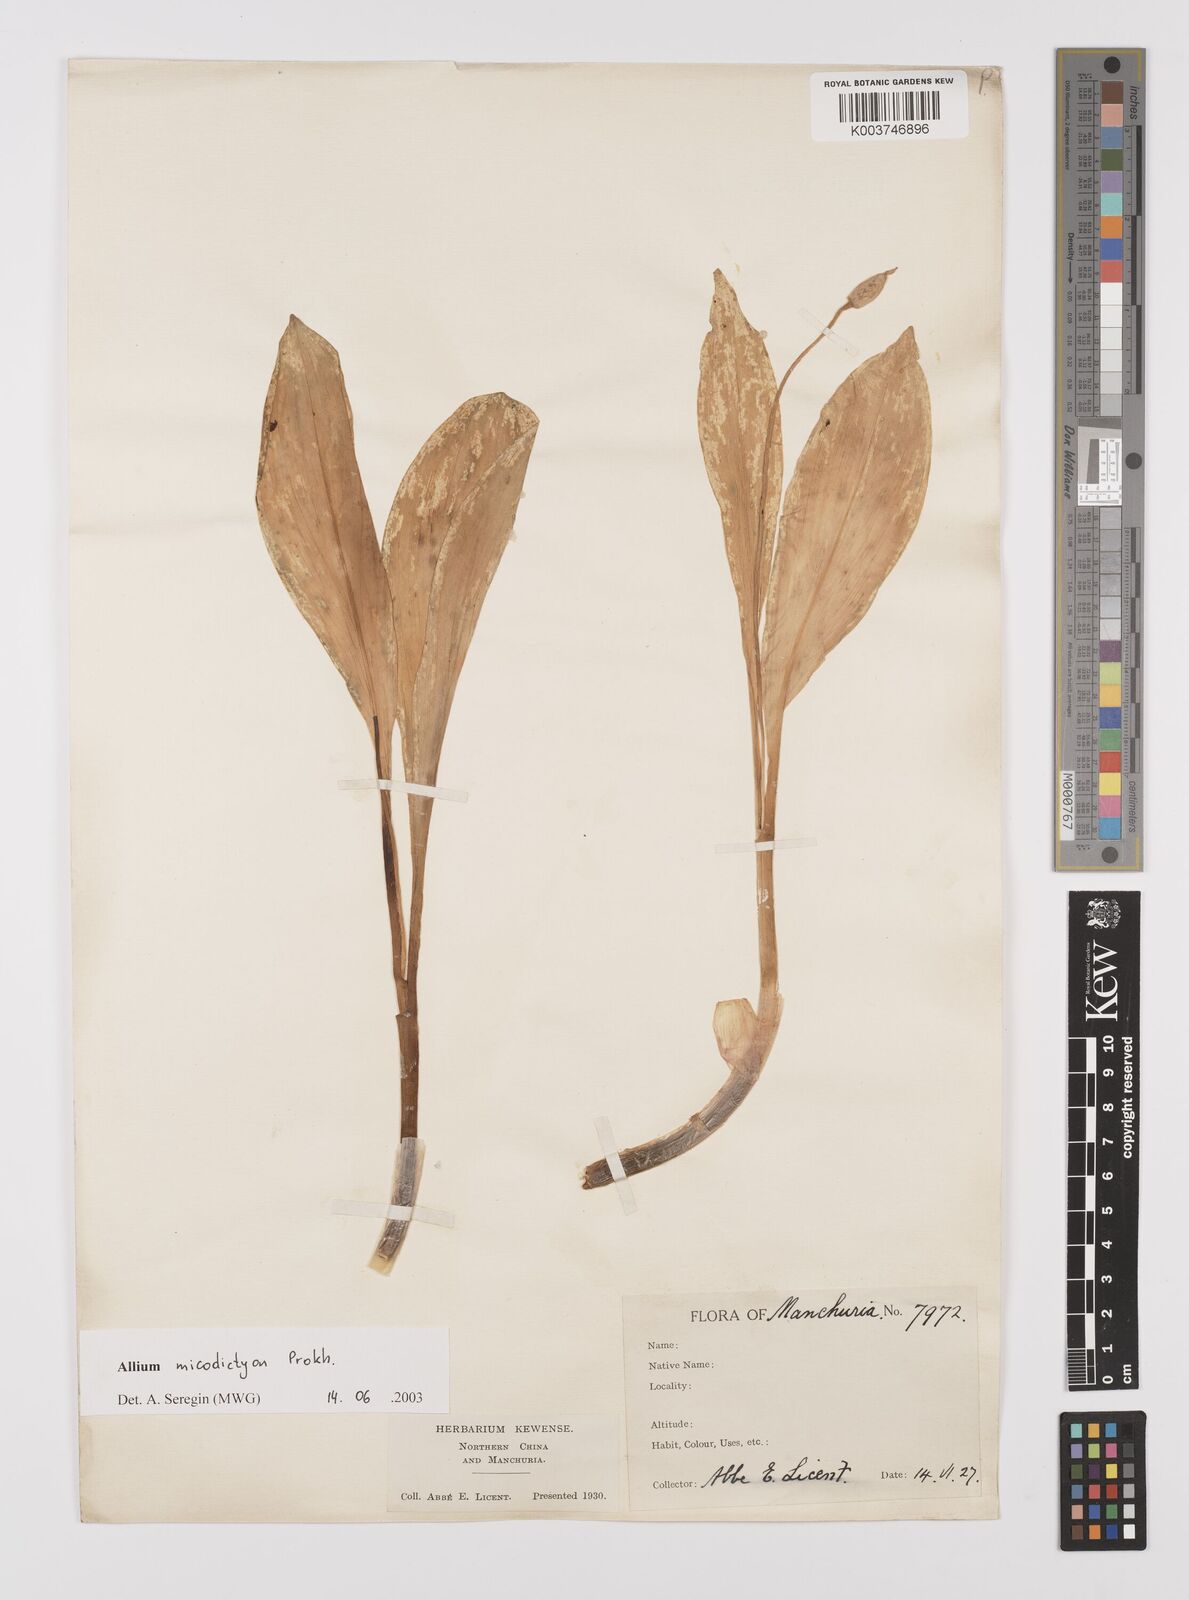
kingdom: Plantae
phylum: Tracheophyta
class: Liliopsida
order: Asparagales
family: Amaryllidaceae
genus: Allium
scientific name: Allium
